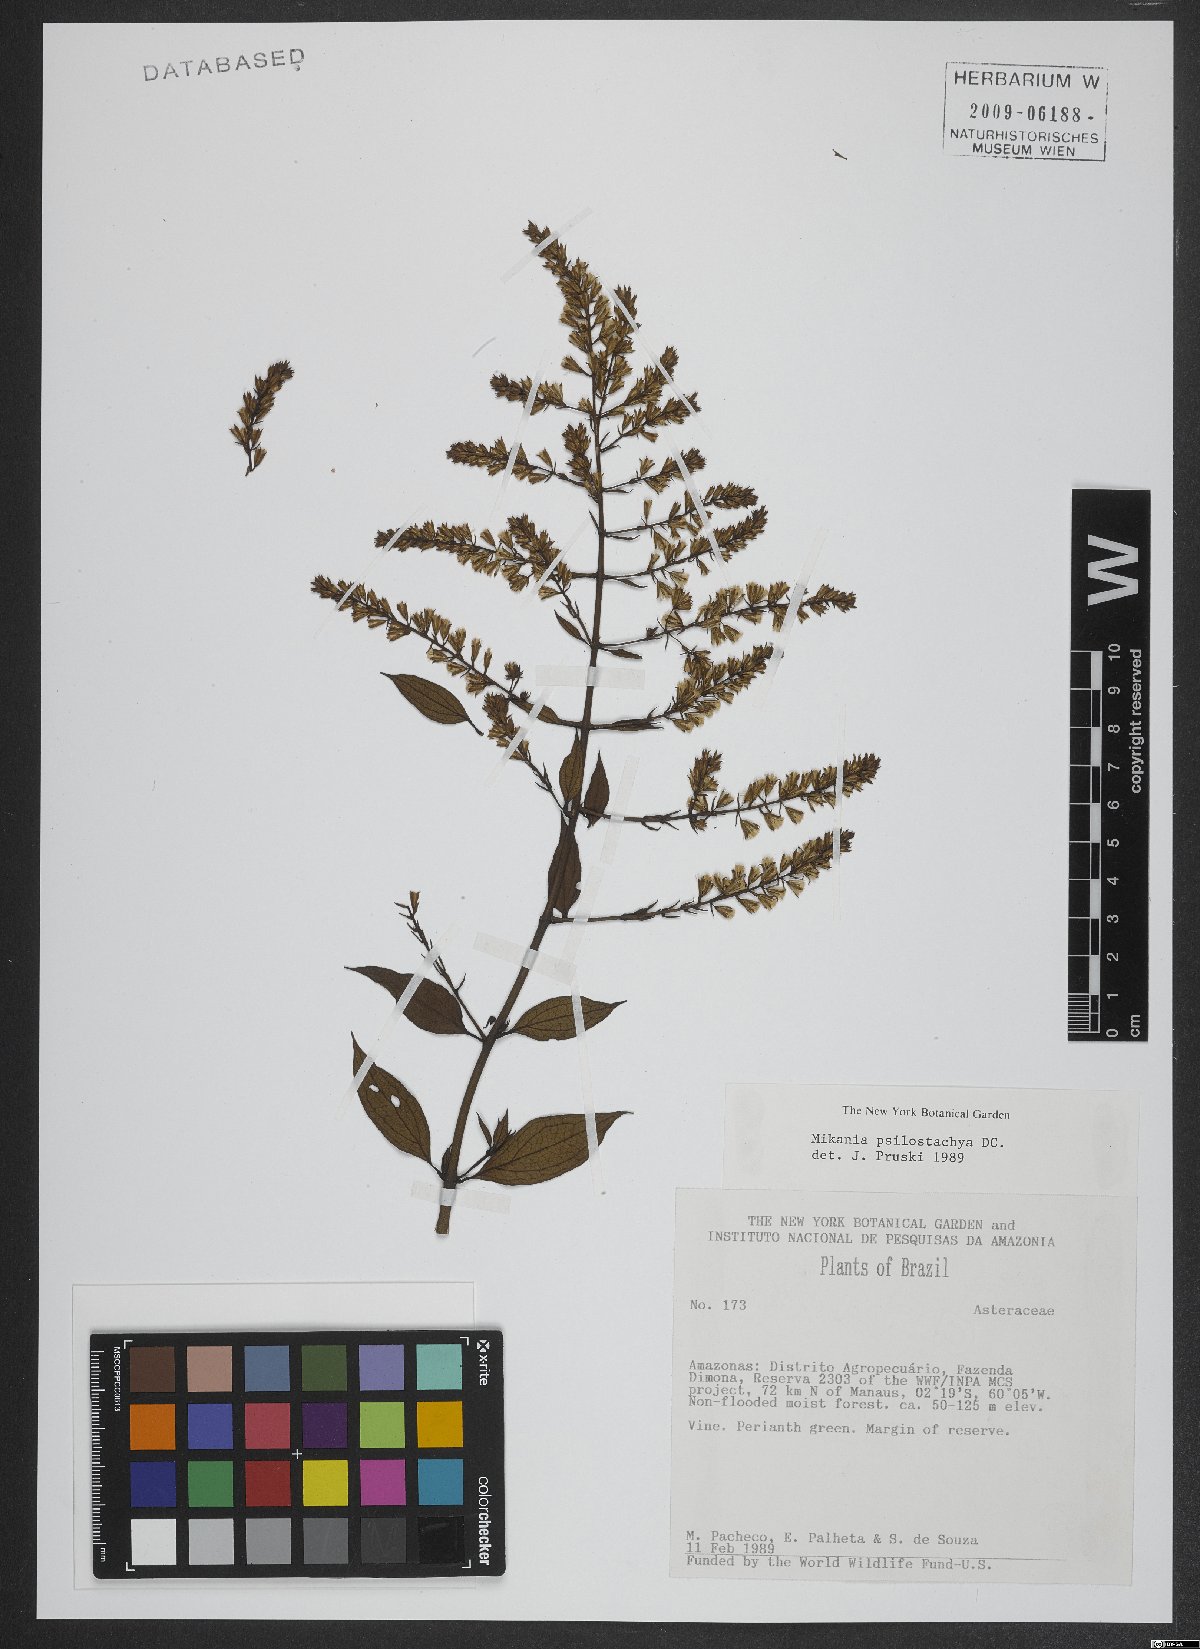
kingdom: Plantae
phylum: Tracheophyta
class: Magnoliopsida
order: Asterales
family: Asteraceae
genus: Mikania
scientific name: Mikania psilostachya
